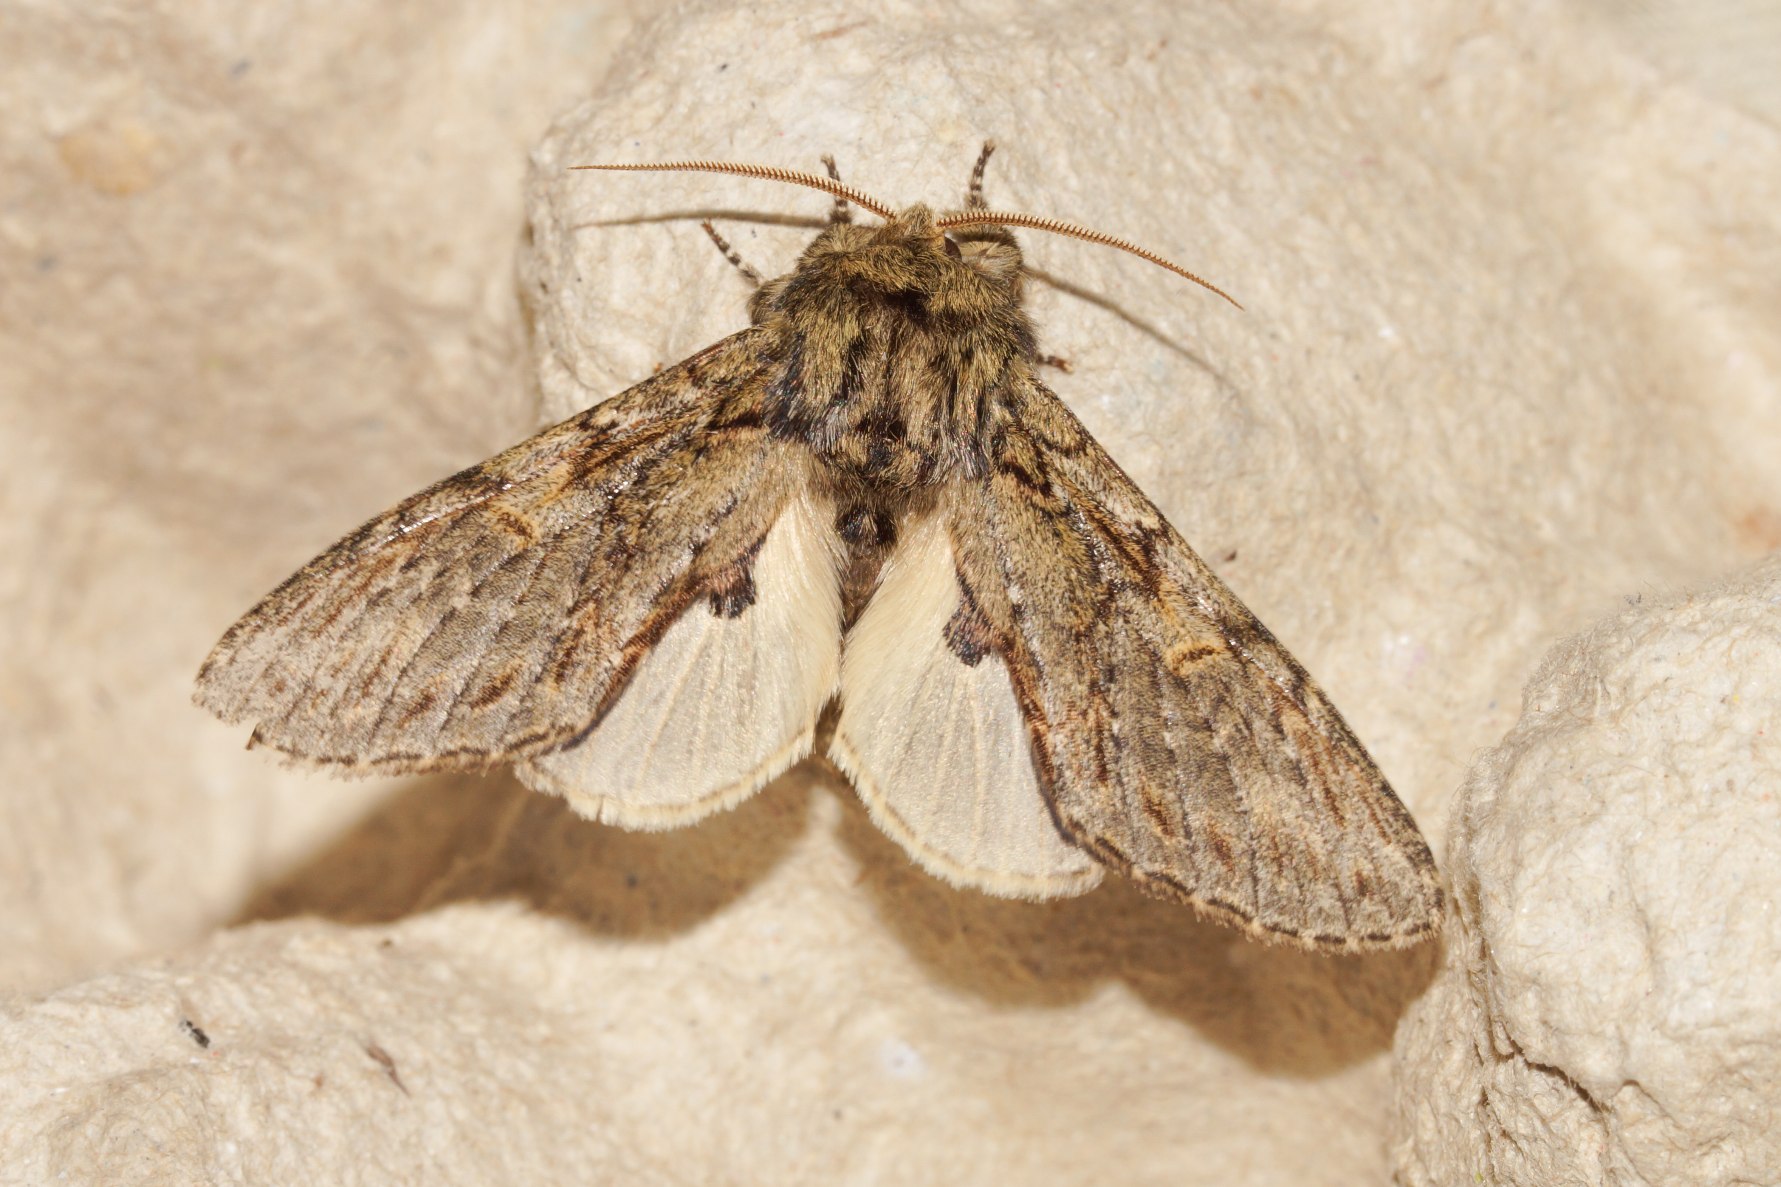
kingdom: Animalia
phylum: Arthropoda
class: Insecta
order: Lepidoptera
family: Notodontidae
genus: Peridea
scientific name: Peridea anceps
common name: Egetandspinder
